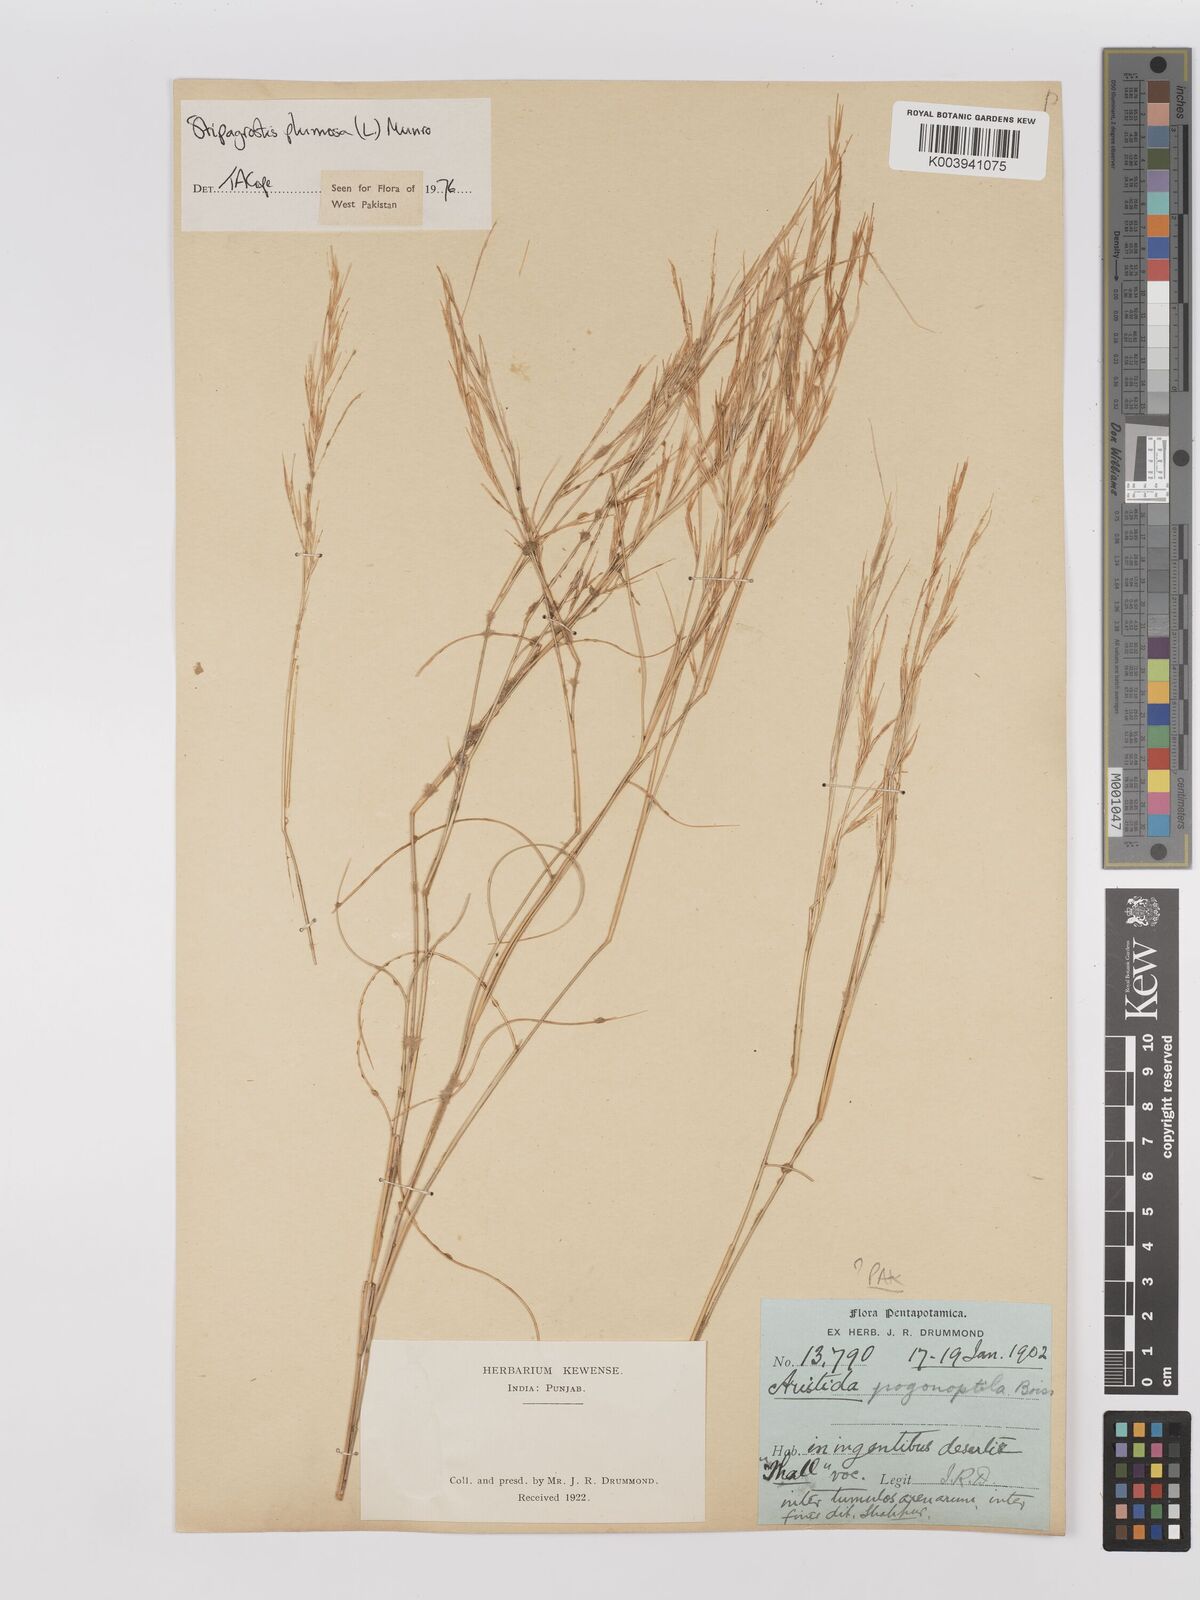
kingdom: Plantae
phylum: Tracheophyta
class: Liliopsida
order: Poales
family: Poaceae
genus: Stipagrostis
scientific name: Stipagrostis
